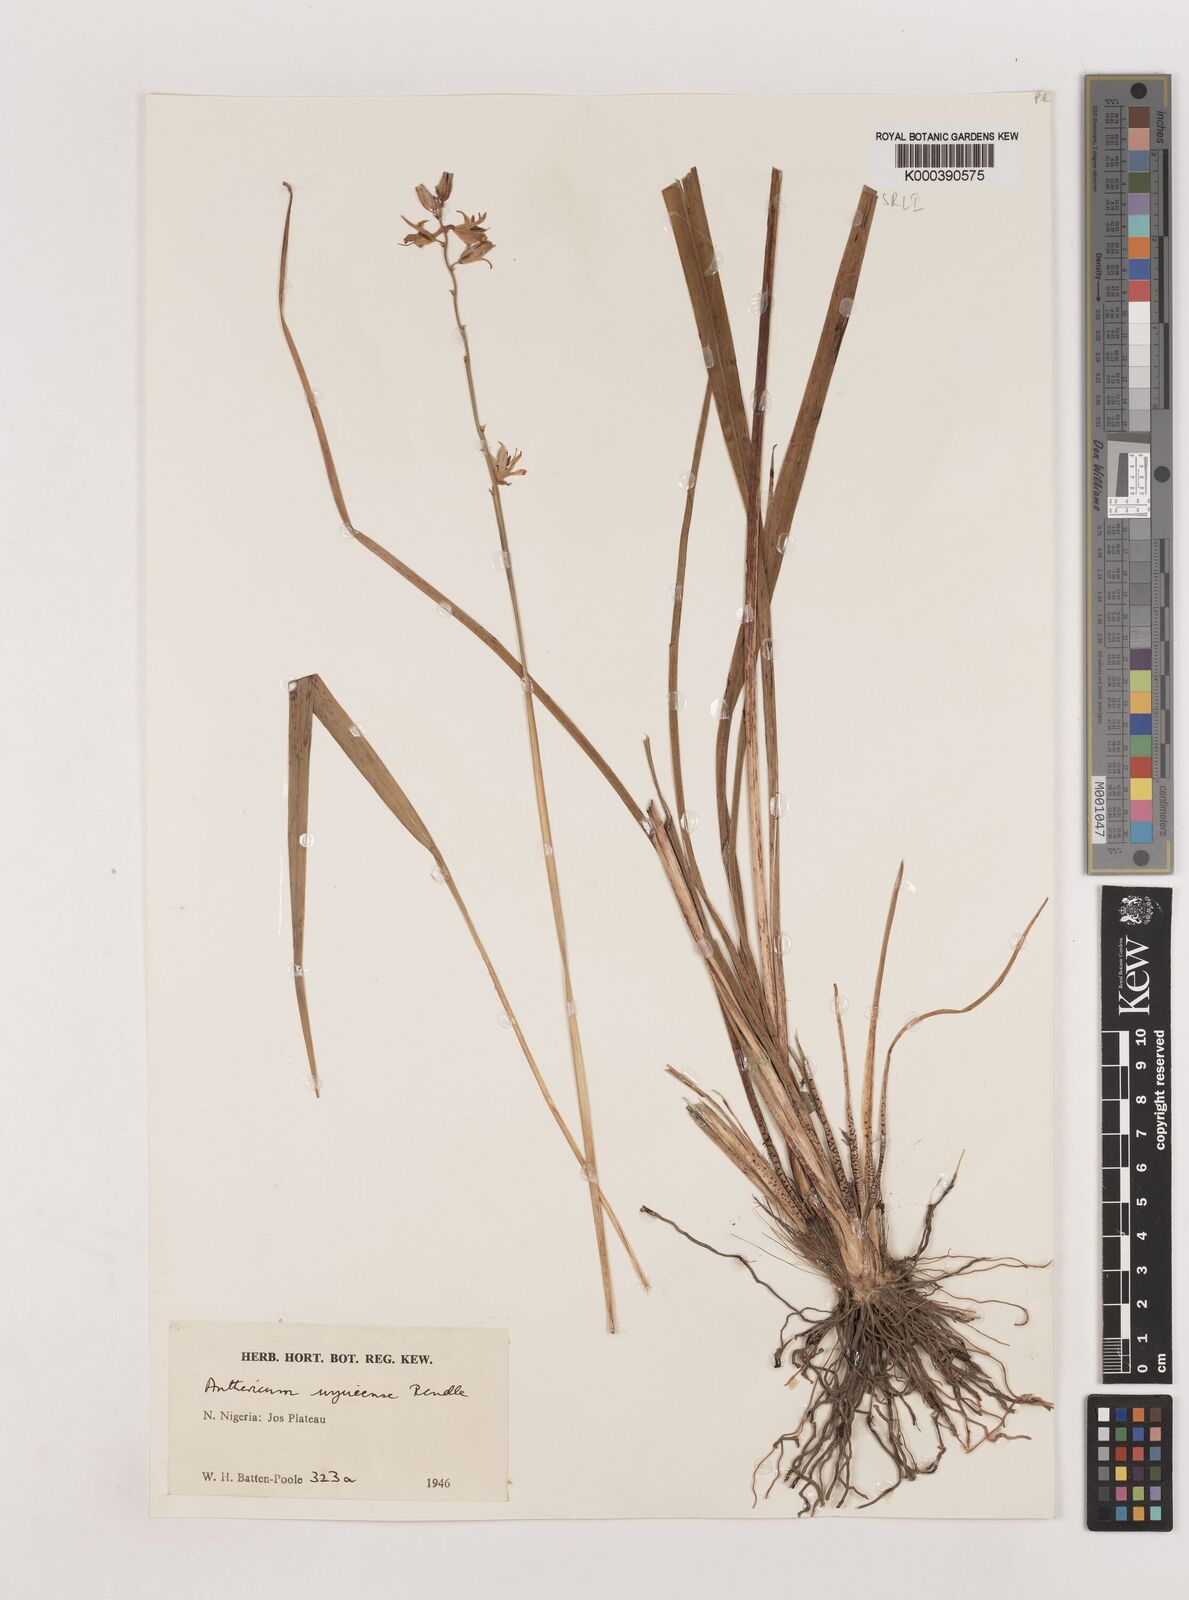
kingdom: Plantae
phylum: Tracheophyta
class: Liliopsida
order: Asparagales
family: Asparagaceae
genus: Chlorophytum
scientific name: Chlorophytum cameronii
